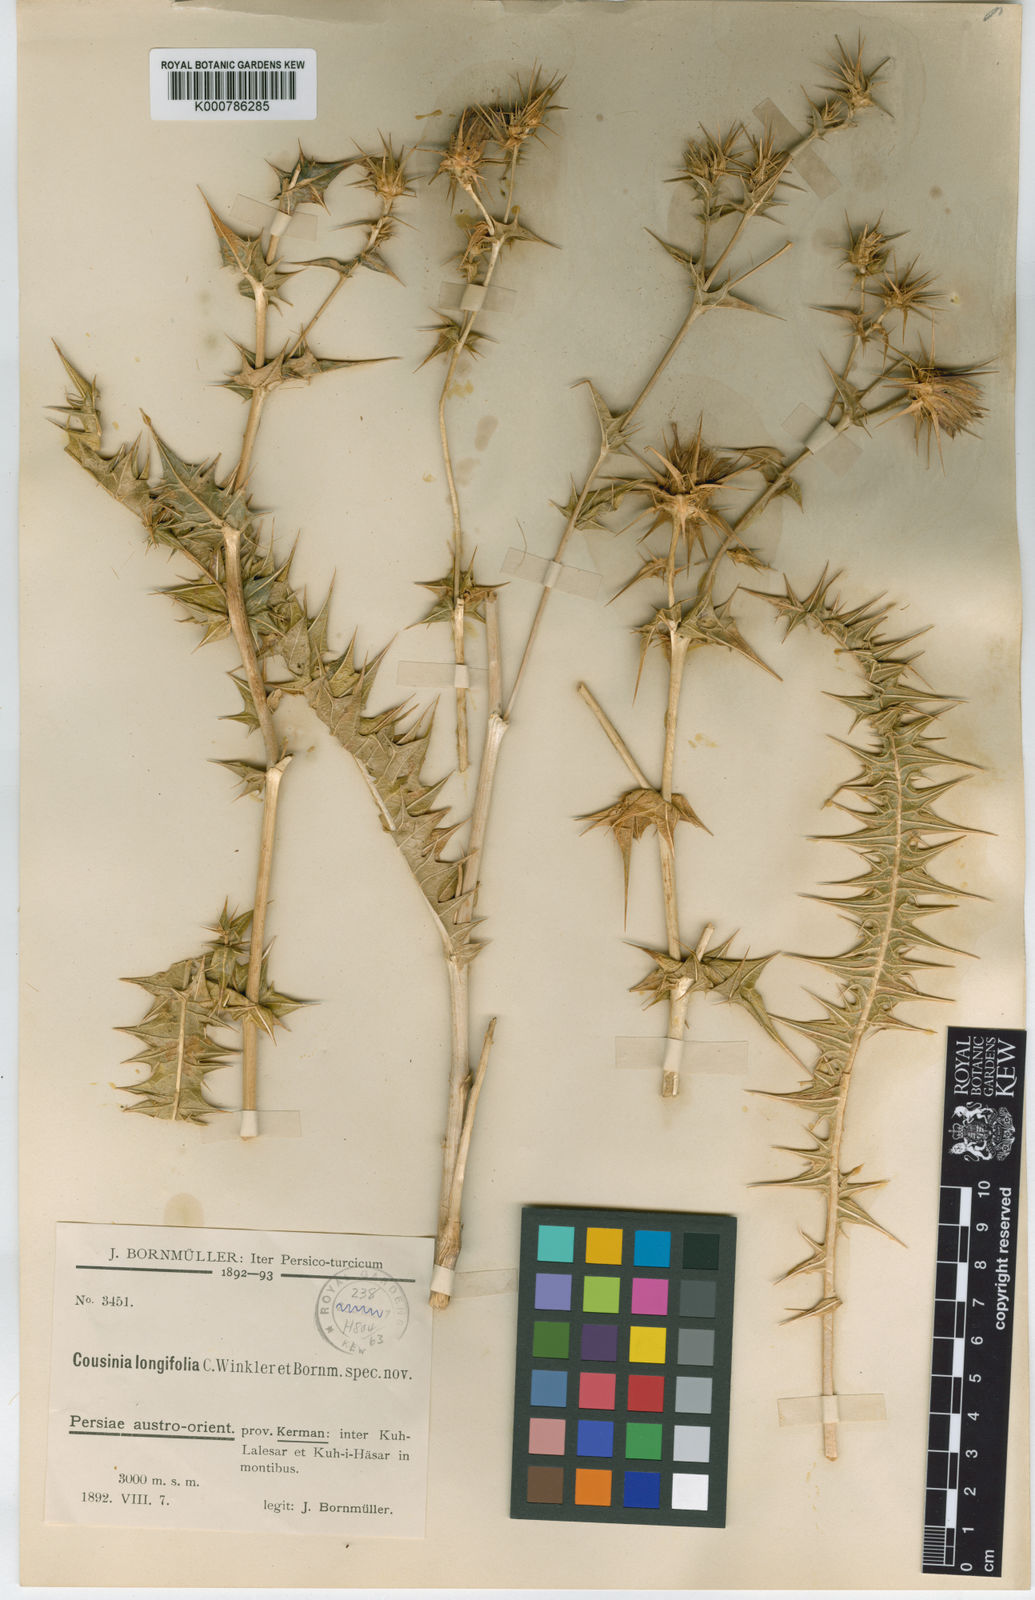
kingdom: Plantae
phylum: Tracheophyta
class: Magnoliopsida
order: Asterales
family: Asteraceae
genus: Cousinia
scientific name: Cousinia longifolia
